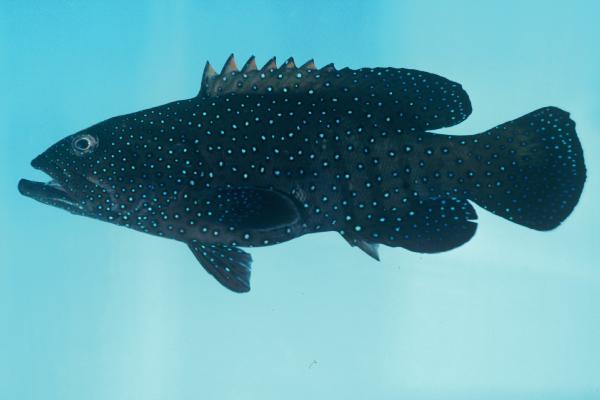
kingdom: Animalia
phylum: Chordata
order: Perciformes
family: Serranidae
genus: Cephalopholis
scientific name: Cephalopholis argus
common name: Peacock grouper
